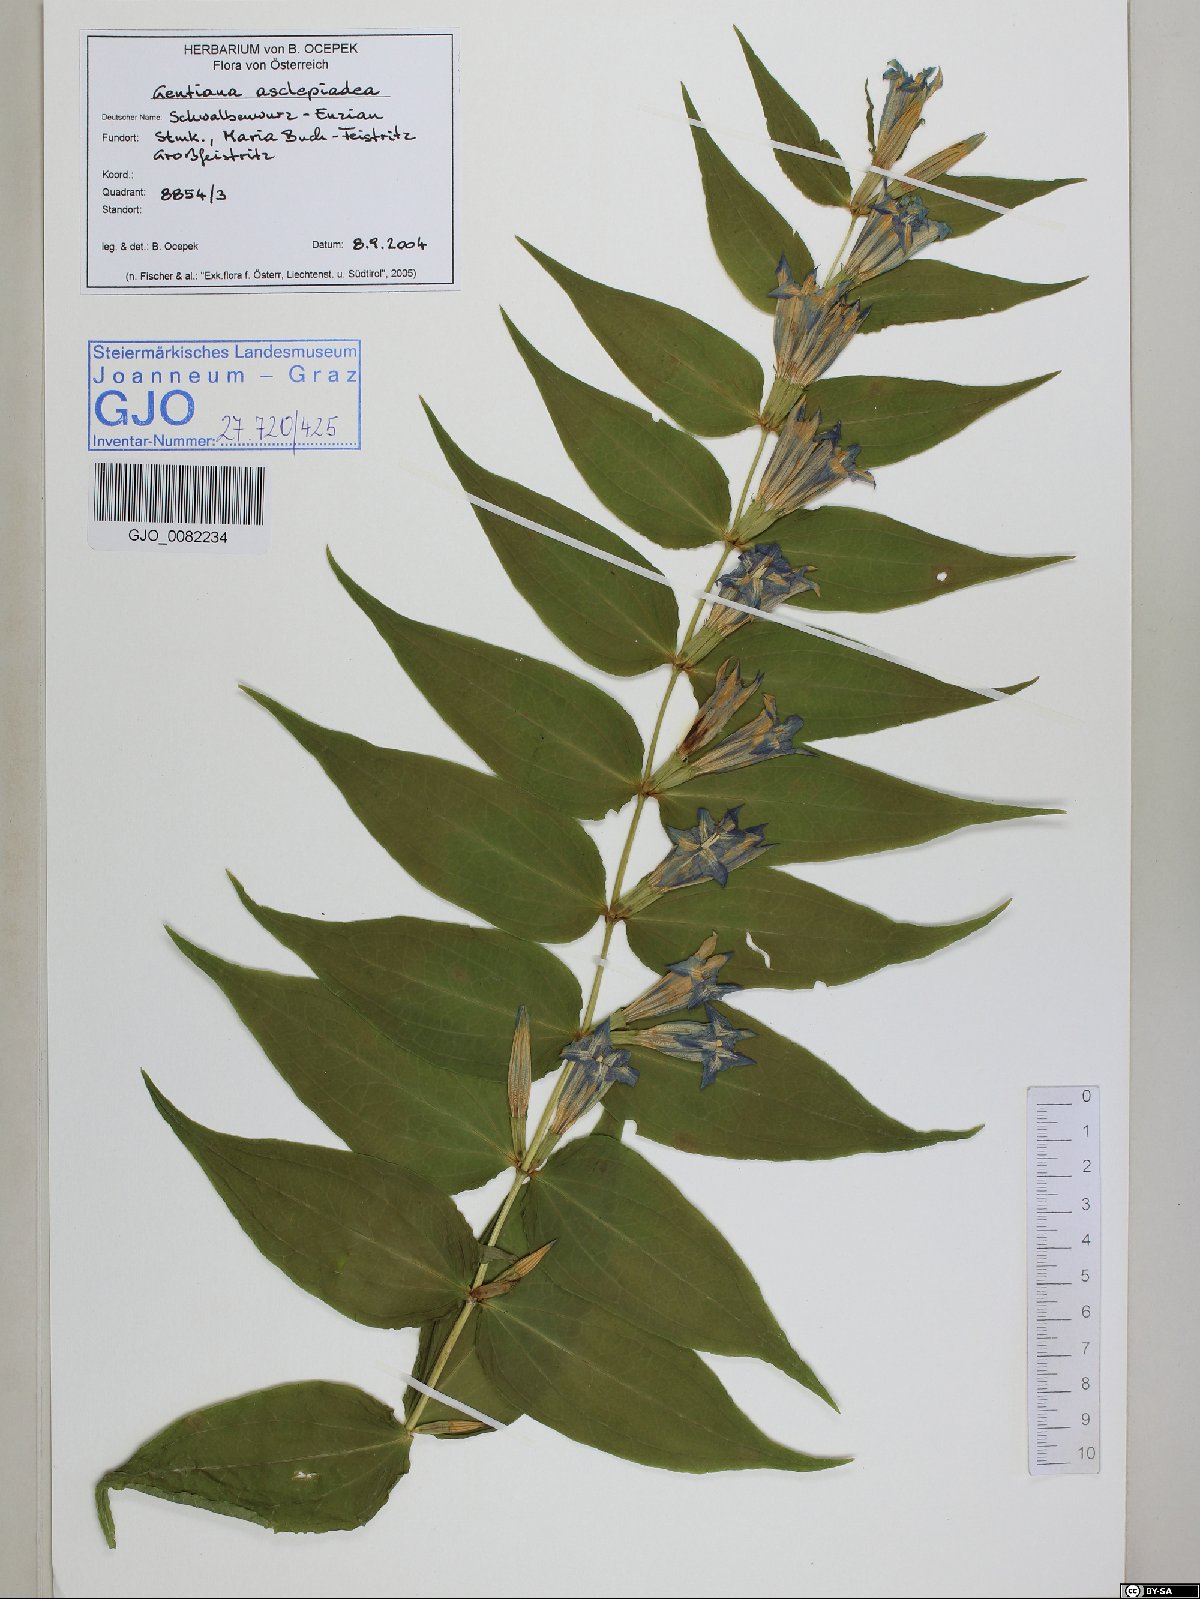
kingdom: Plantae
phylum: Tracheophyta
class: Magnoliopsida
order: Gentianales
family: Gentianaceae
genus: Gentiana
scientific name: Gentiana asclepiadea
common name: Willow gentian
